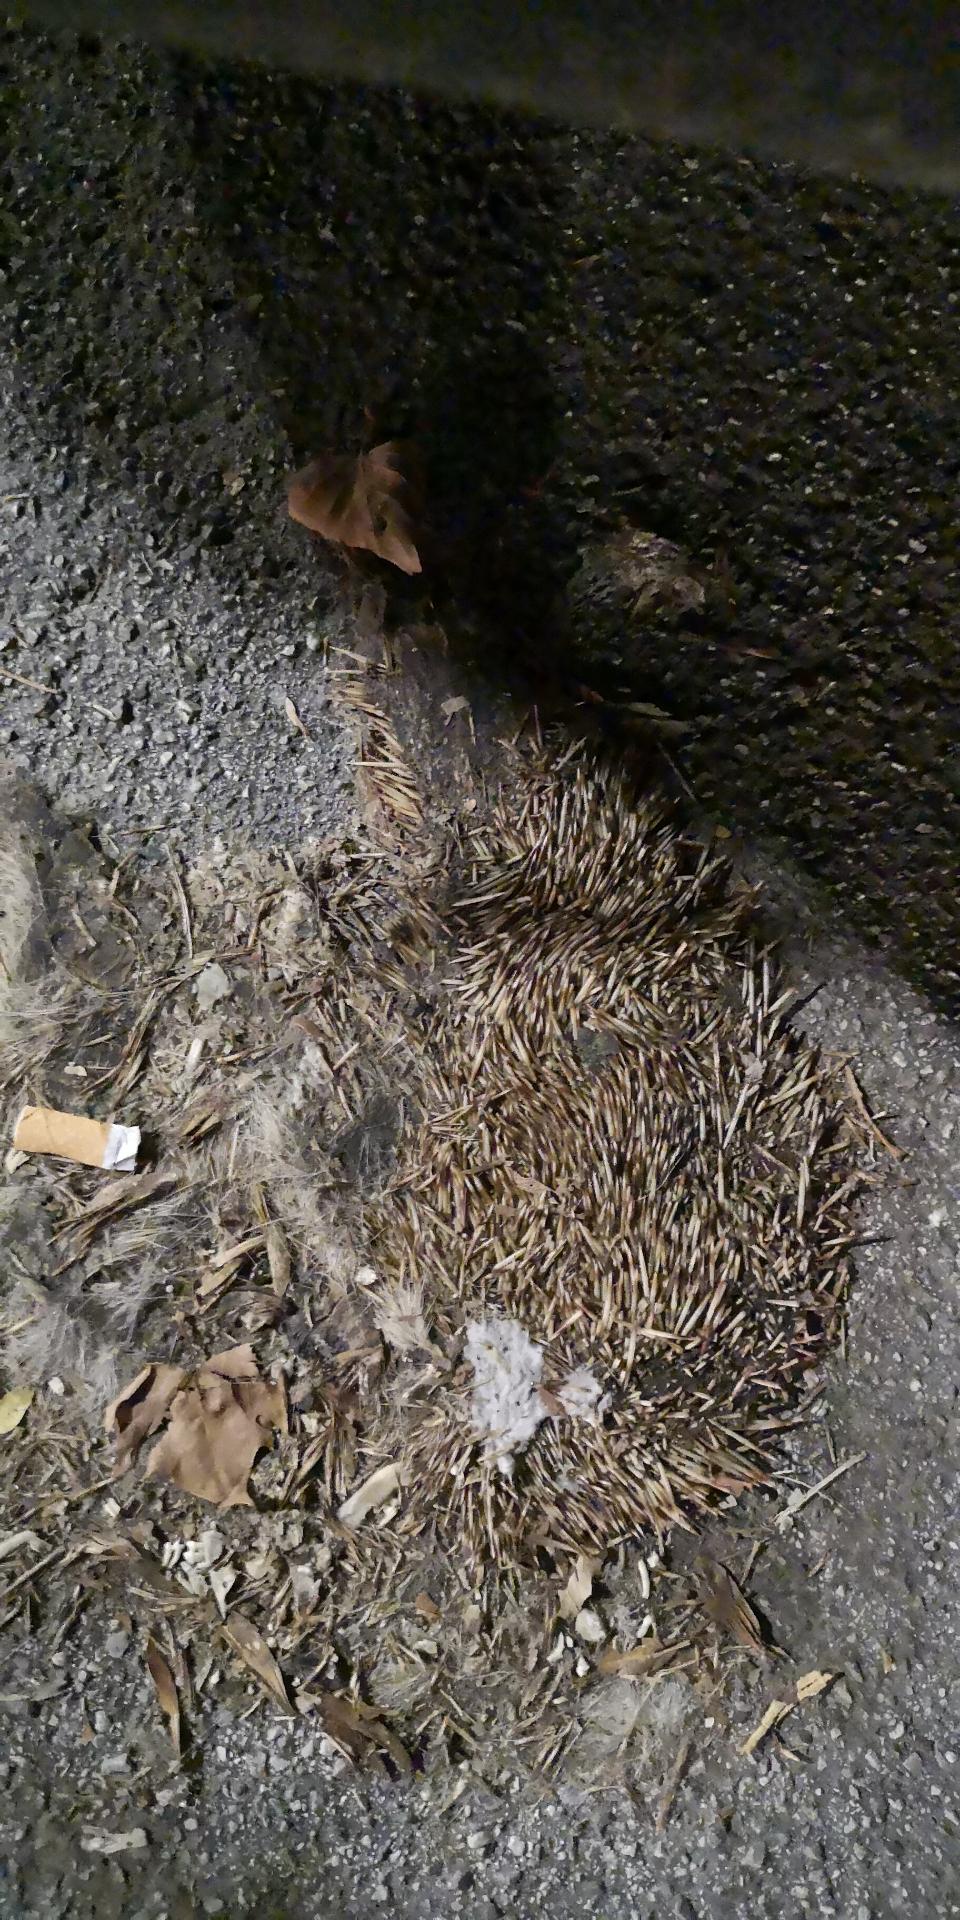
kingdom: Animalia
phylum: Chordata
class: Mammalia
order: Erinaceomorpha
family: Erinaceidae
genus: Erinaceus
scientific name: Erinaceus
